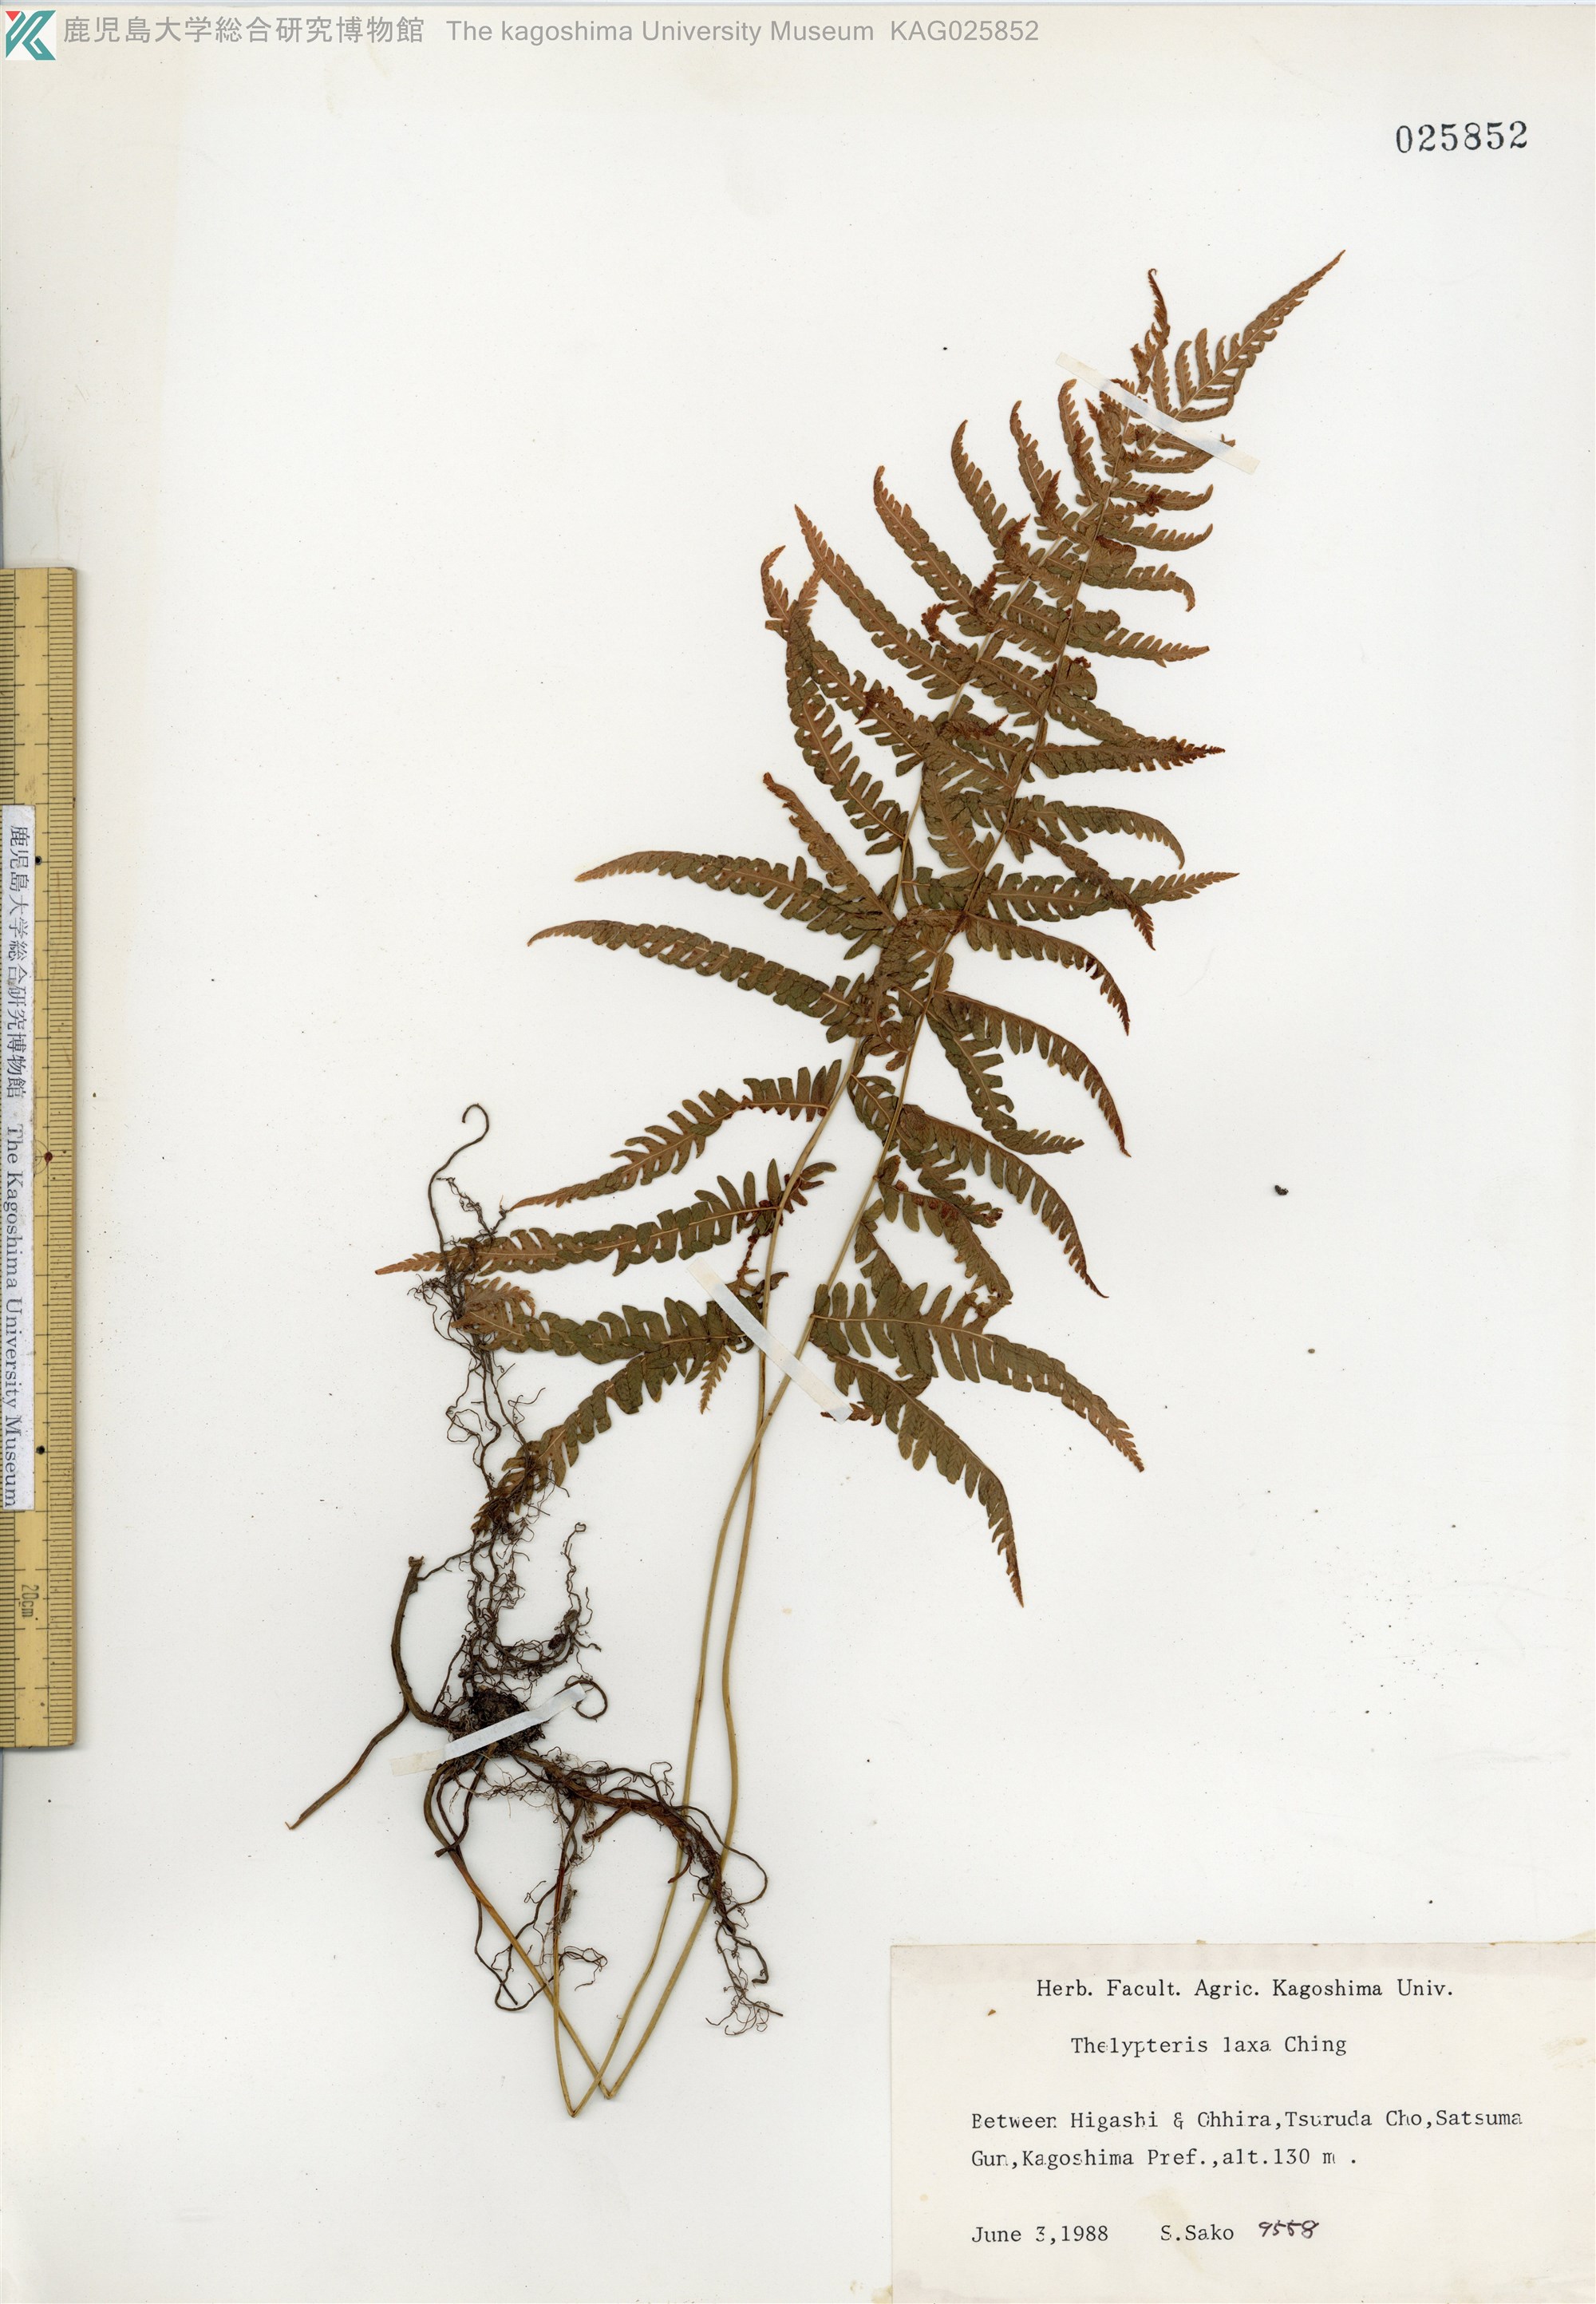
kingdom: Plantae
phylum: Tracheophyta
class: Polypodiopsida
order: Polypodiales
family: Thelypteridaceae
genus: Metathelypteris
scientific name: Metathelypteris laxa
